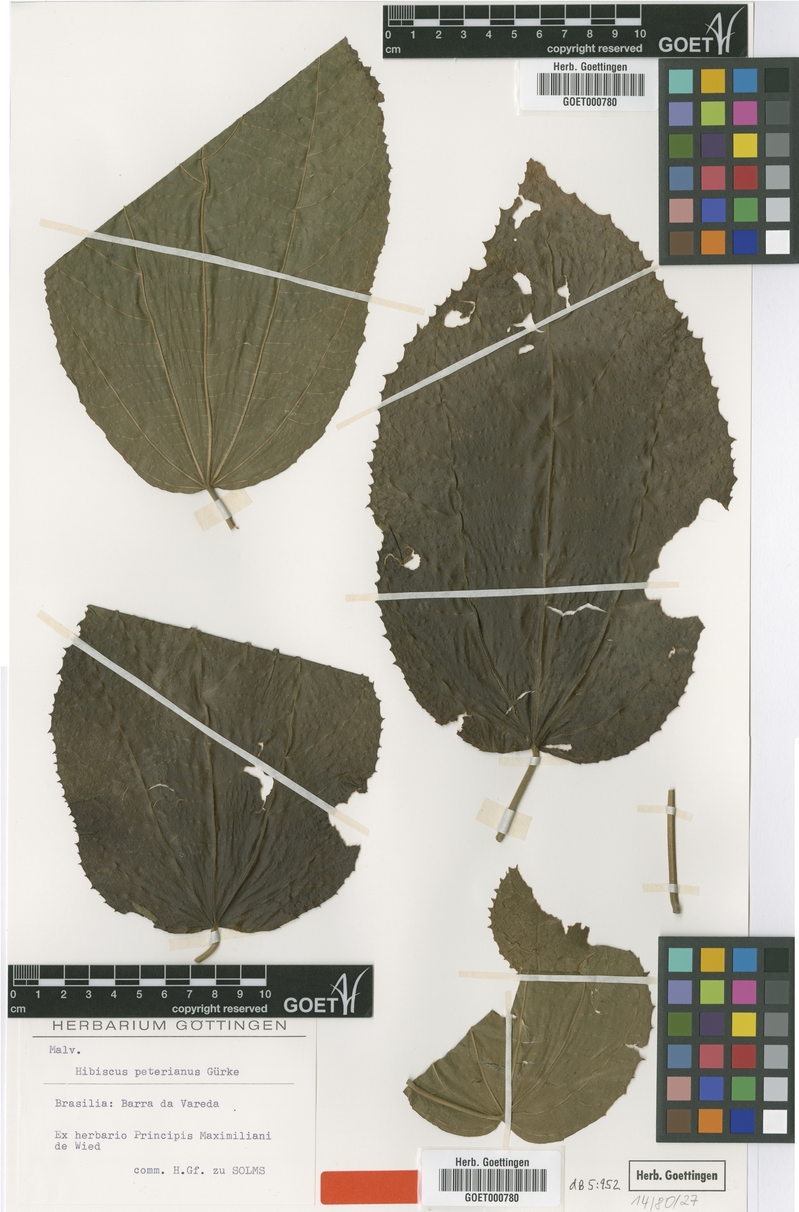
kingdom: Plantae
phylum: Tracheophyta
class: Magnoliopsida
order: Malvales
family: Malvaceae
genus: Hibiscus
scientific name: Hibiscus peterianus
